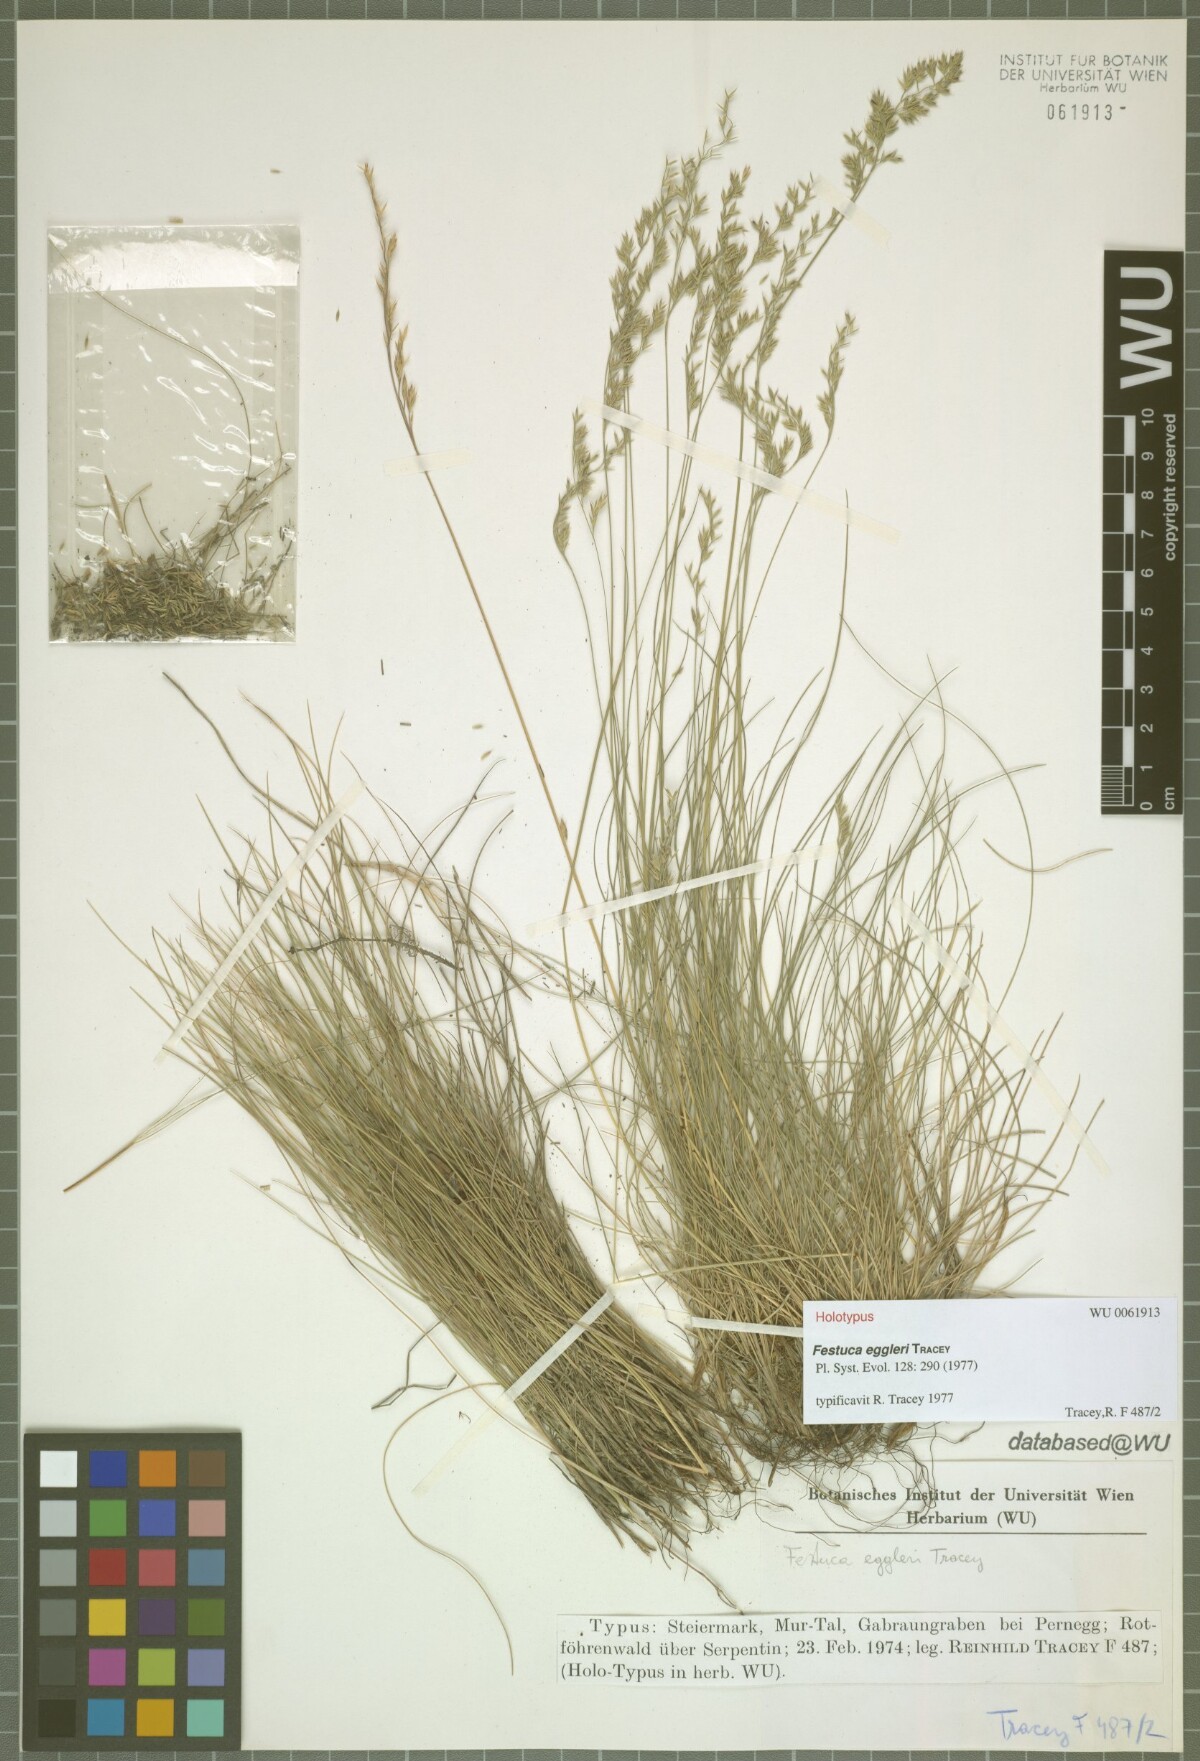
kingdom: Plantae
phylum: Tracheophyta
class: Liliopsida
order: Poales
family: Poaceae
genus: Festuca
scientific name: Festuca eggleri
